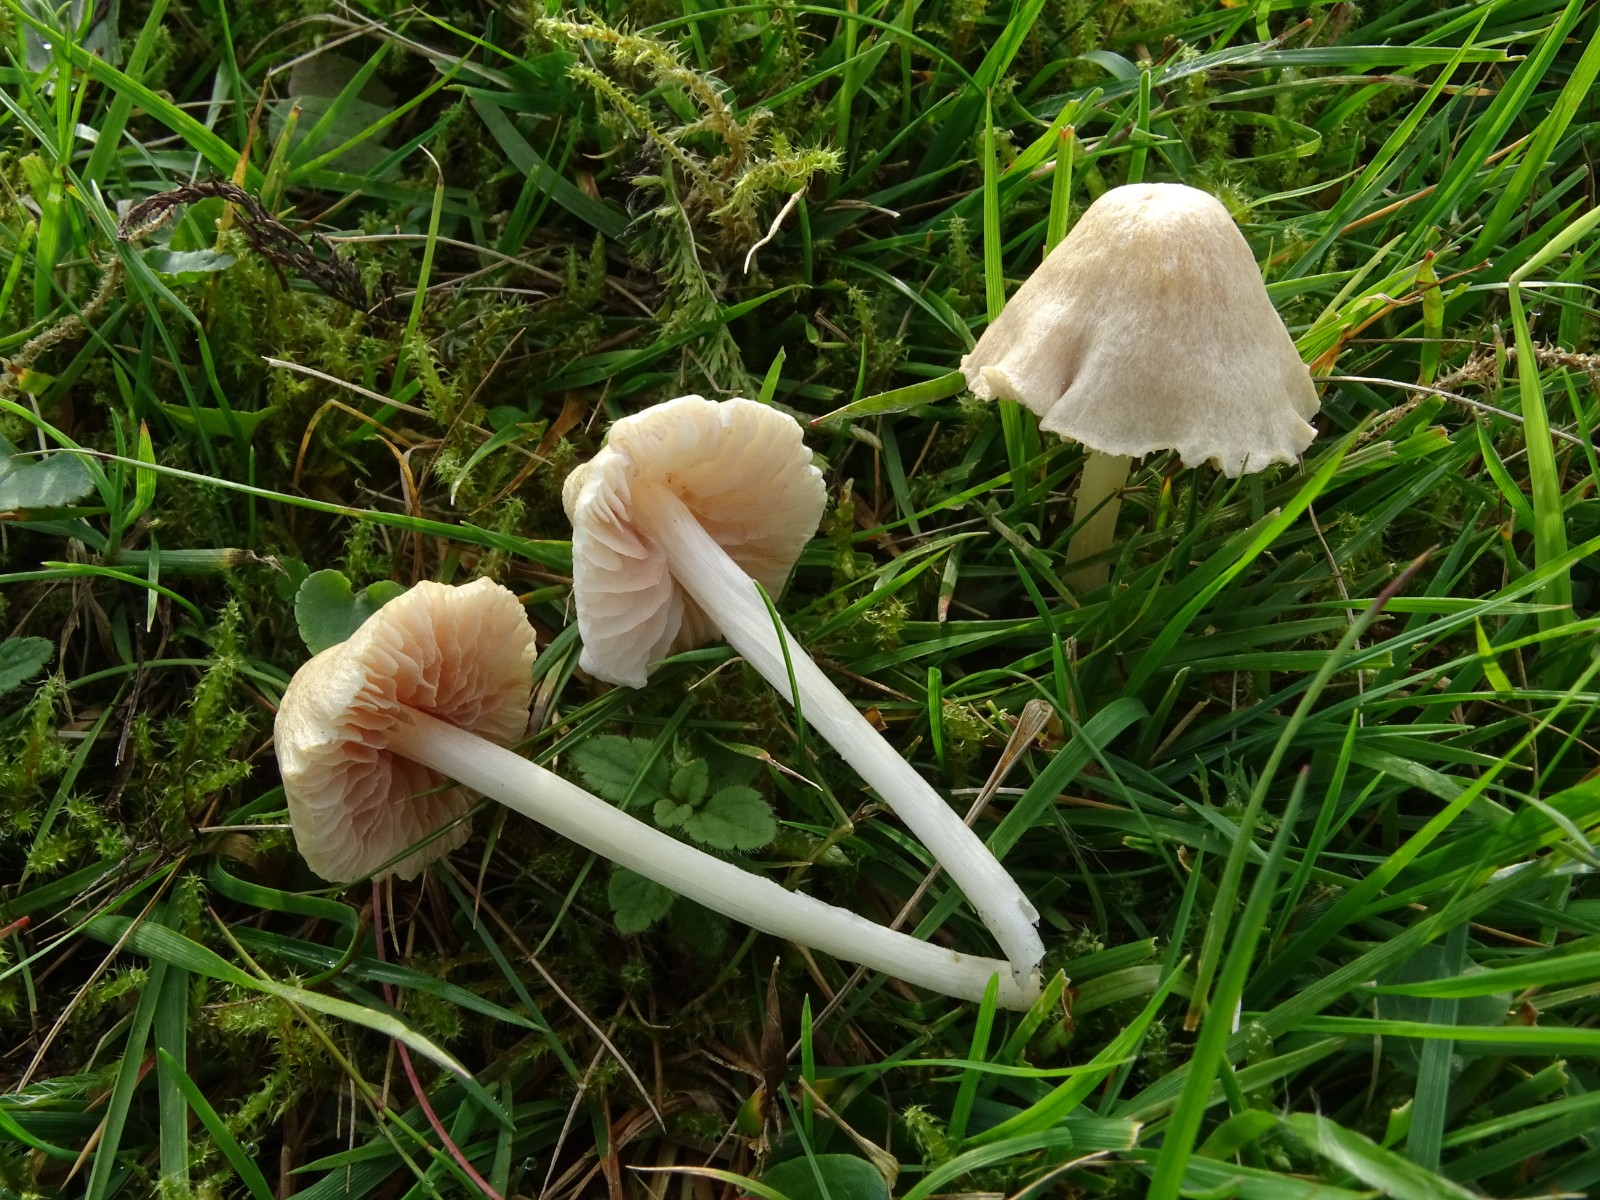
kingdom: Fungi
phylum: Basidiomycota
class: Agaricomycetes
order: Agaricales
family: Entolomataceae
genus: Entoloma
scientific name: Entoloma sericellum
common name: silkehvid rødblad
